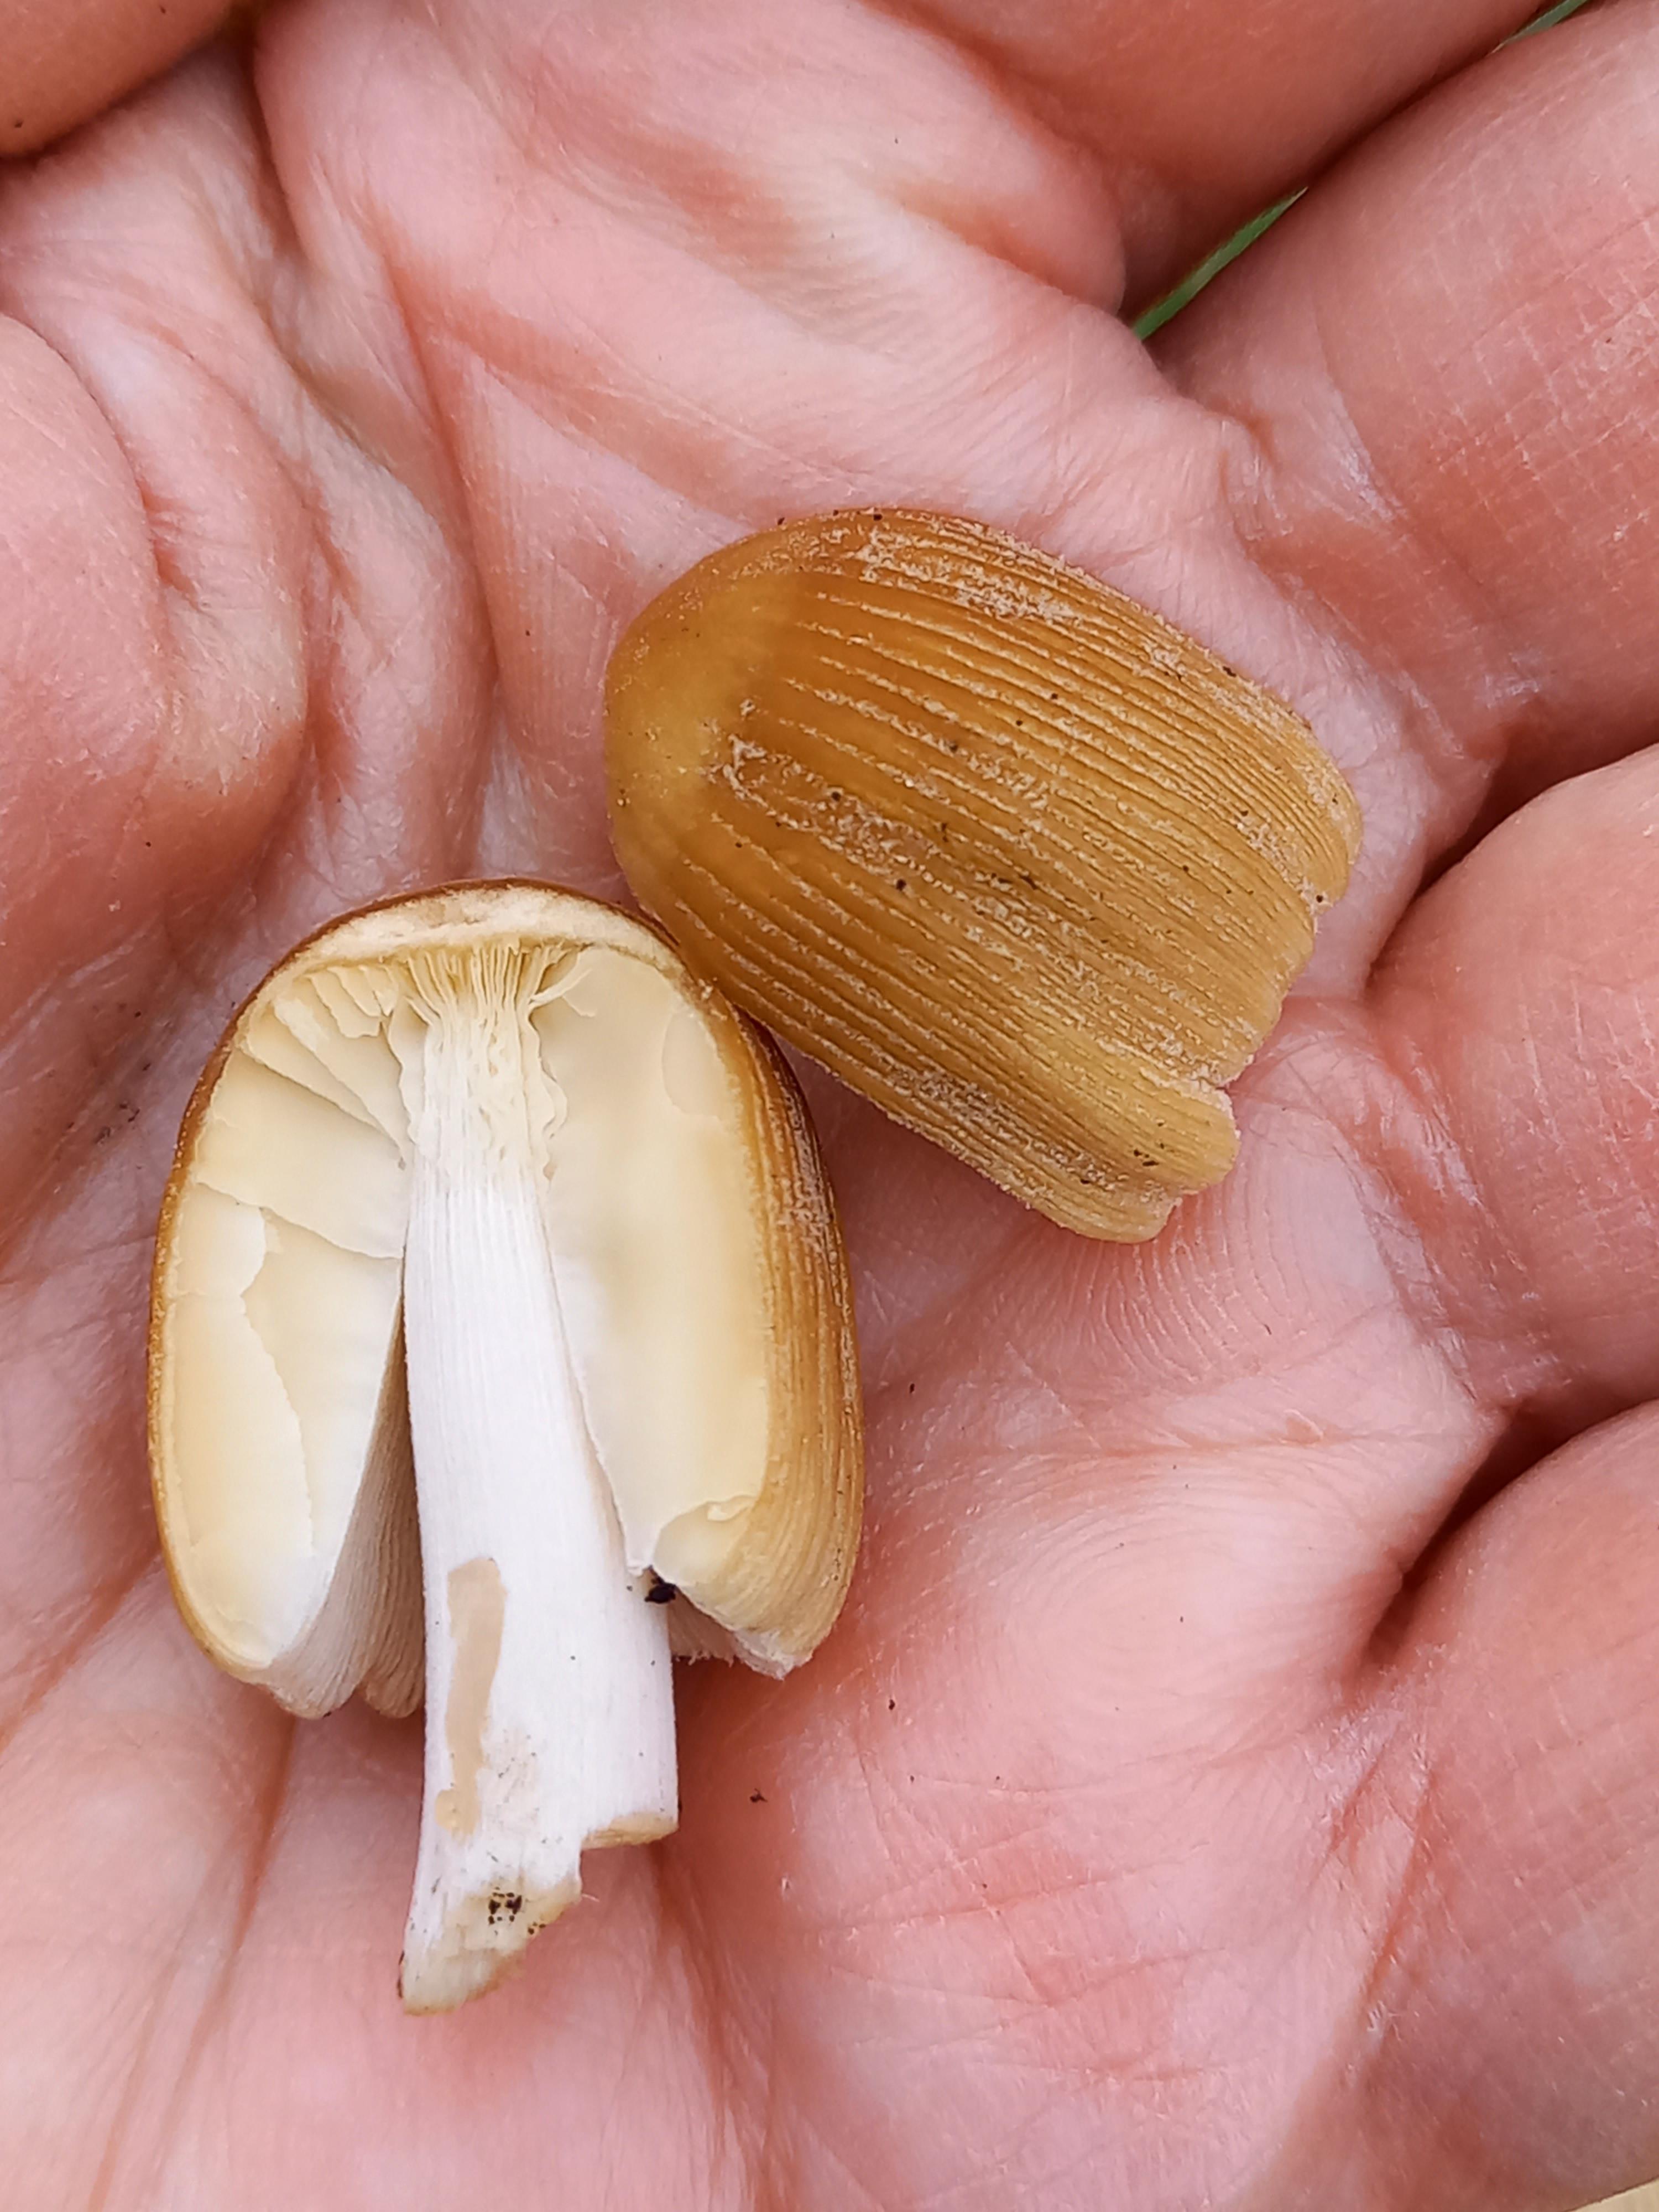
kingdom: Fungi
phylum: Basidiomycota
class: Agaricomycetes
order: Agaricales
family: Psathyrellaceae
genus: Coprinellus
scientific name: Coprinellus micaceus
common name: glimmer-blækhat
